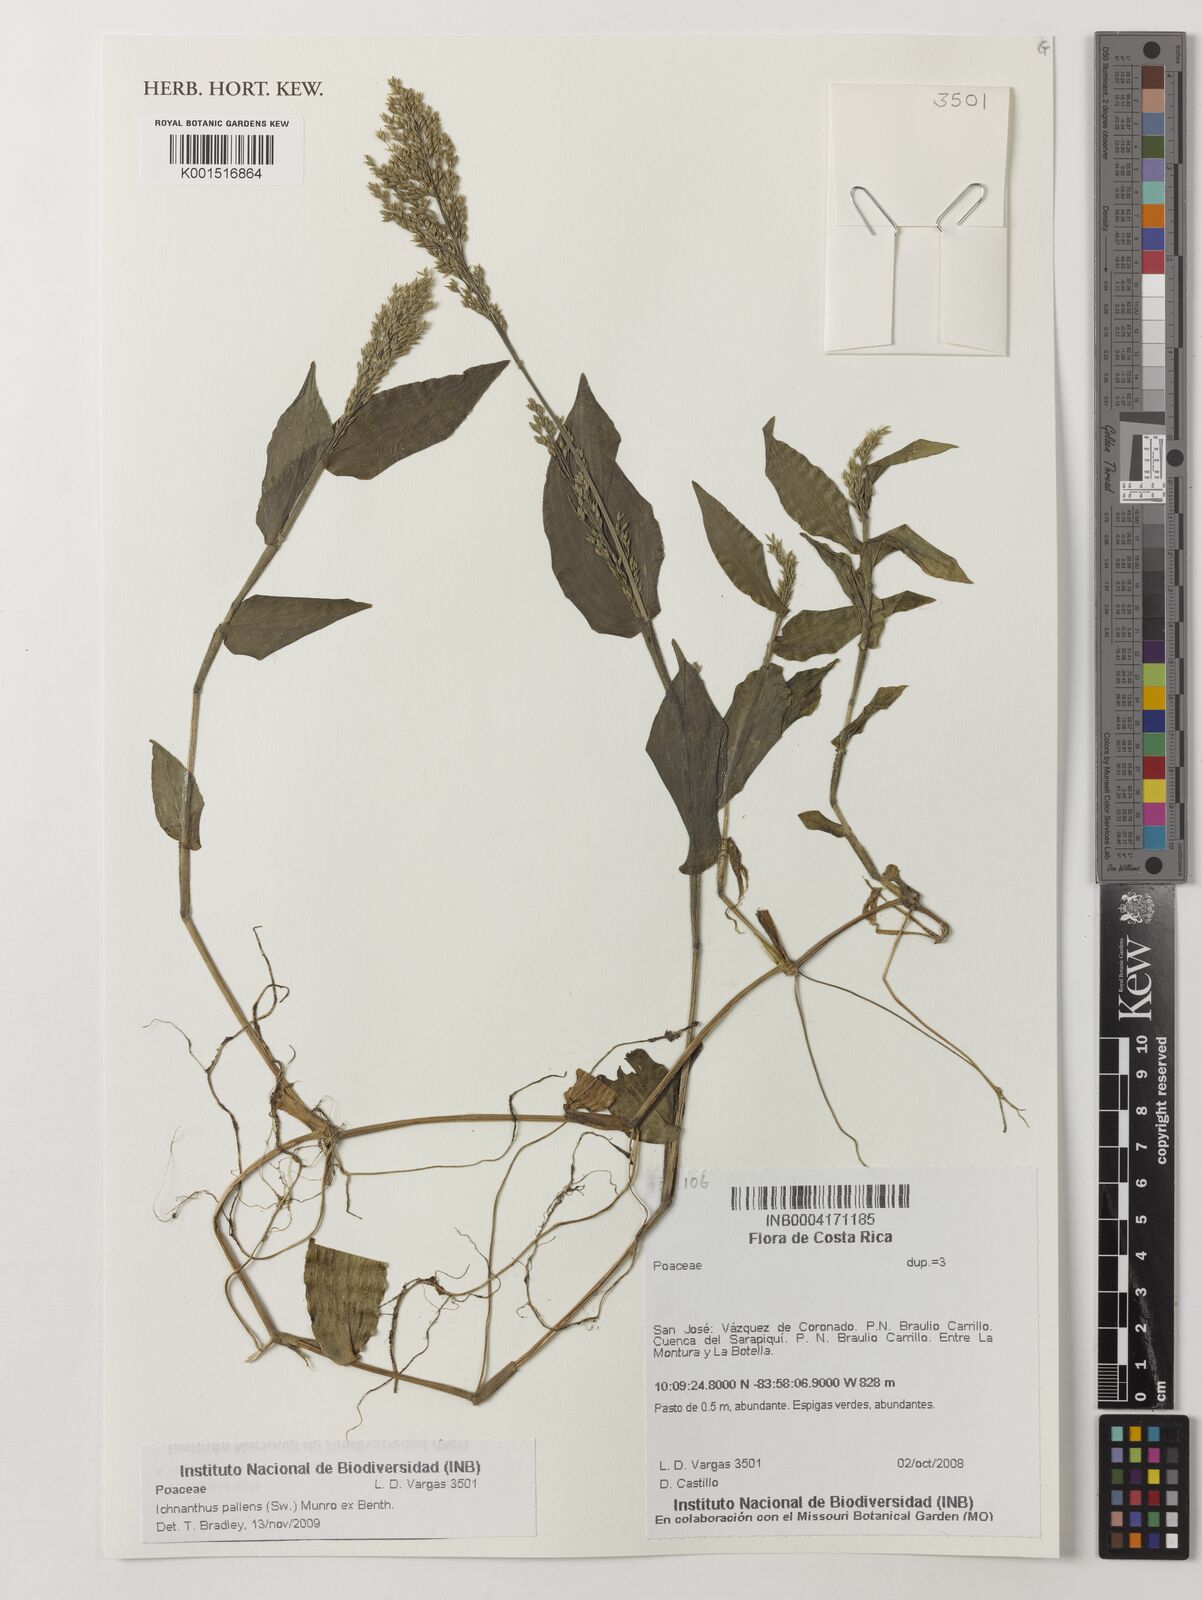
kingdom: Plantae
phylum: Tracheophyta
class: Liliopsida
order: Poales
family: Poaceae
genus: Ichnanthus
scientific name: Ichnanthus pallens
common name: Water grass
